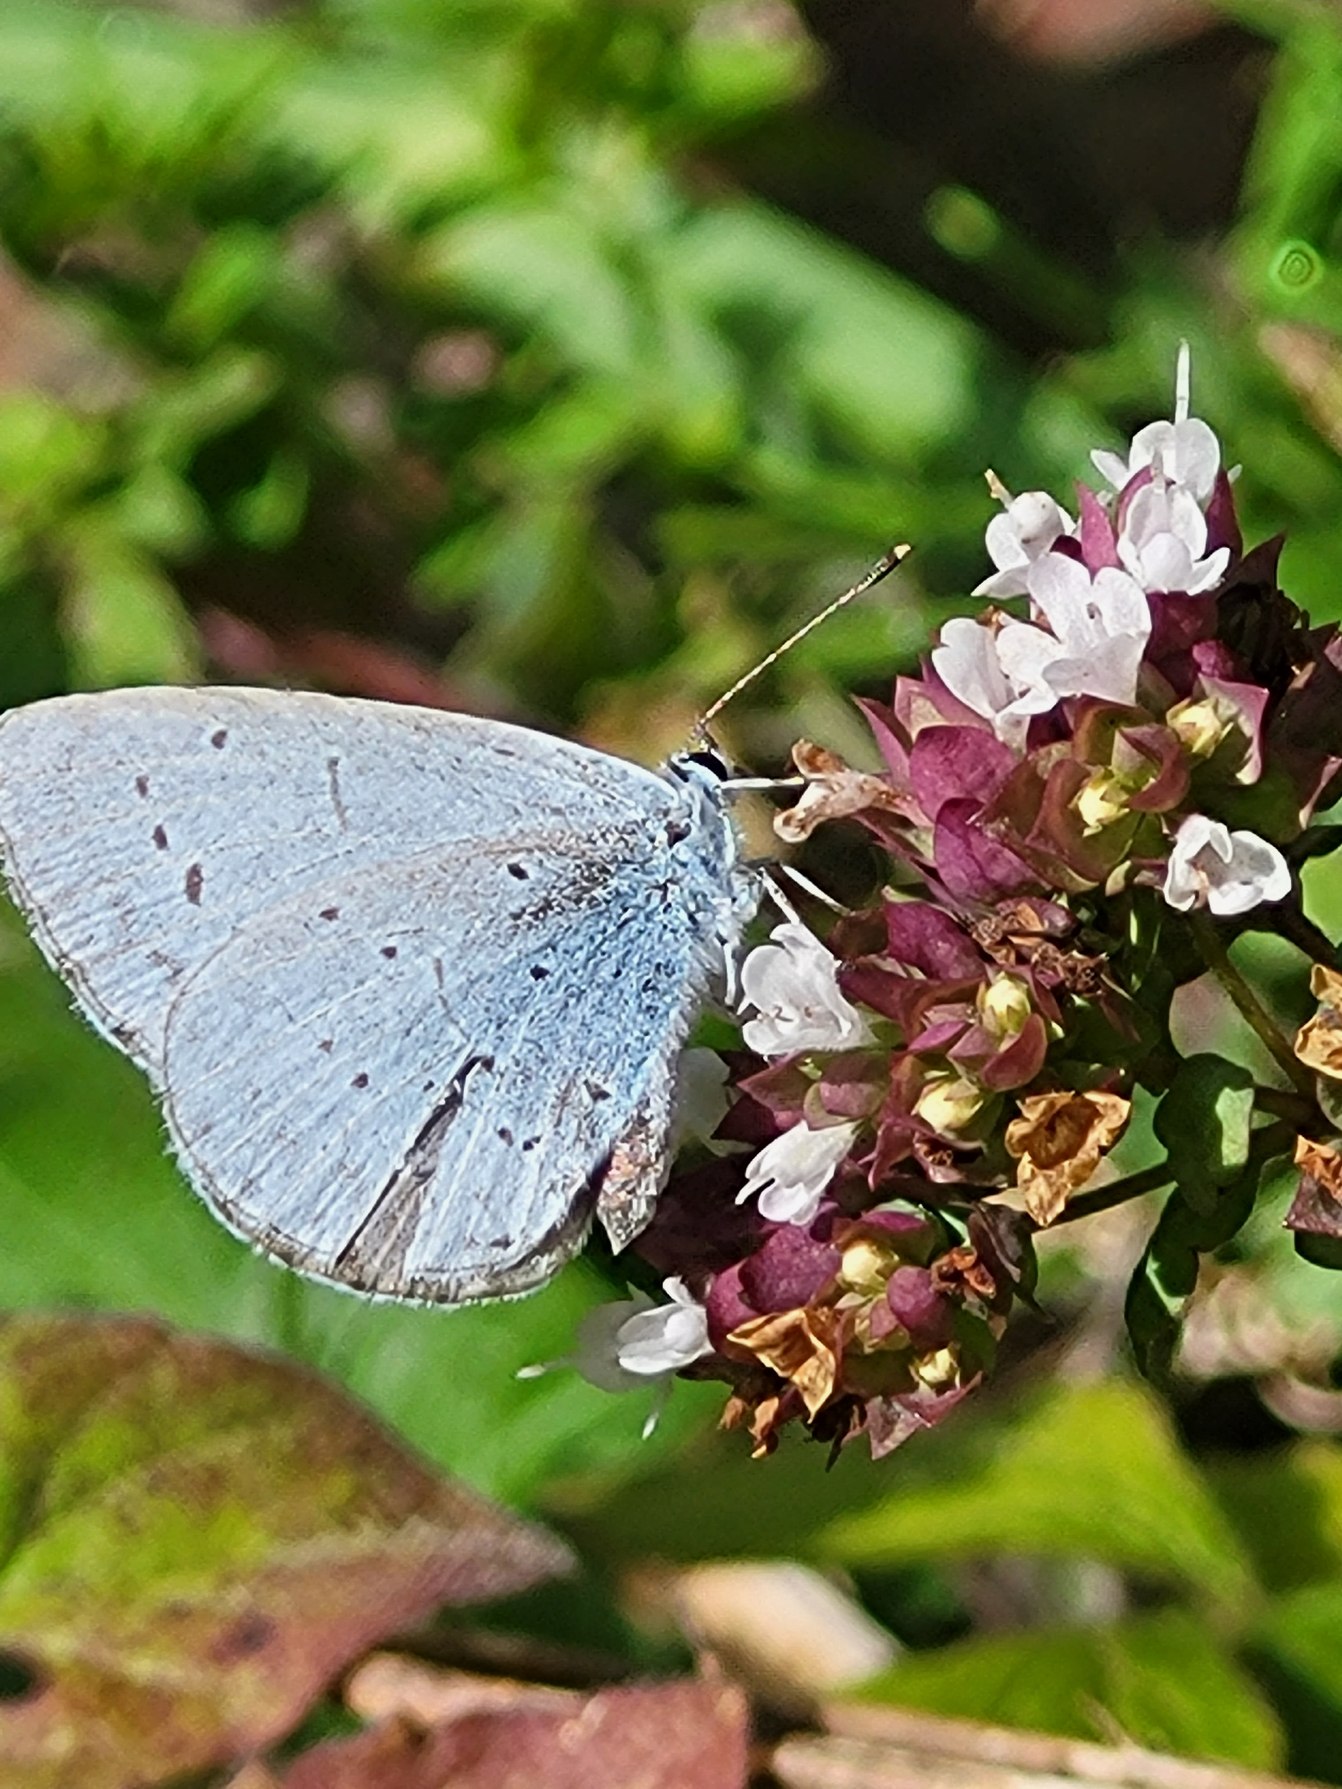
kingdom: Animalia
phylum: Arthropoda
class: Insecta
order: Lepidoptera
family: Lycaenidae
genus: Celastrina
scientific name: Celastrina argiolus
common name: Skovblåfugl
